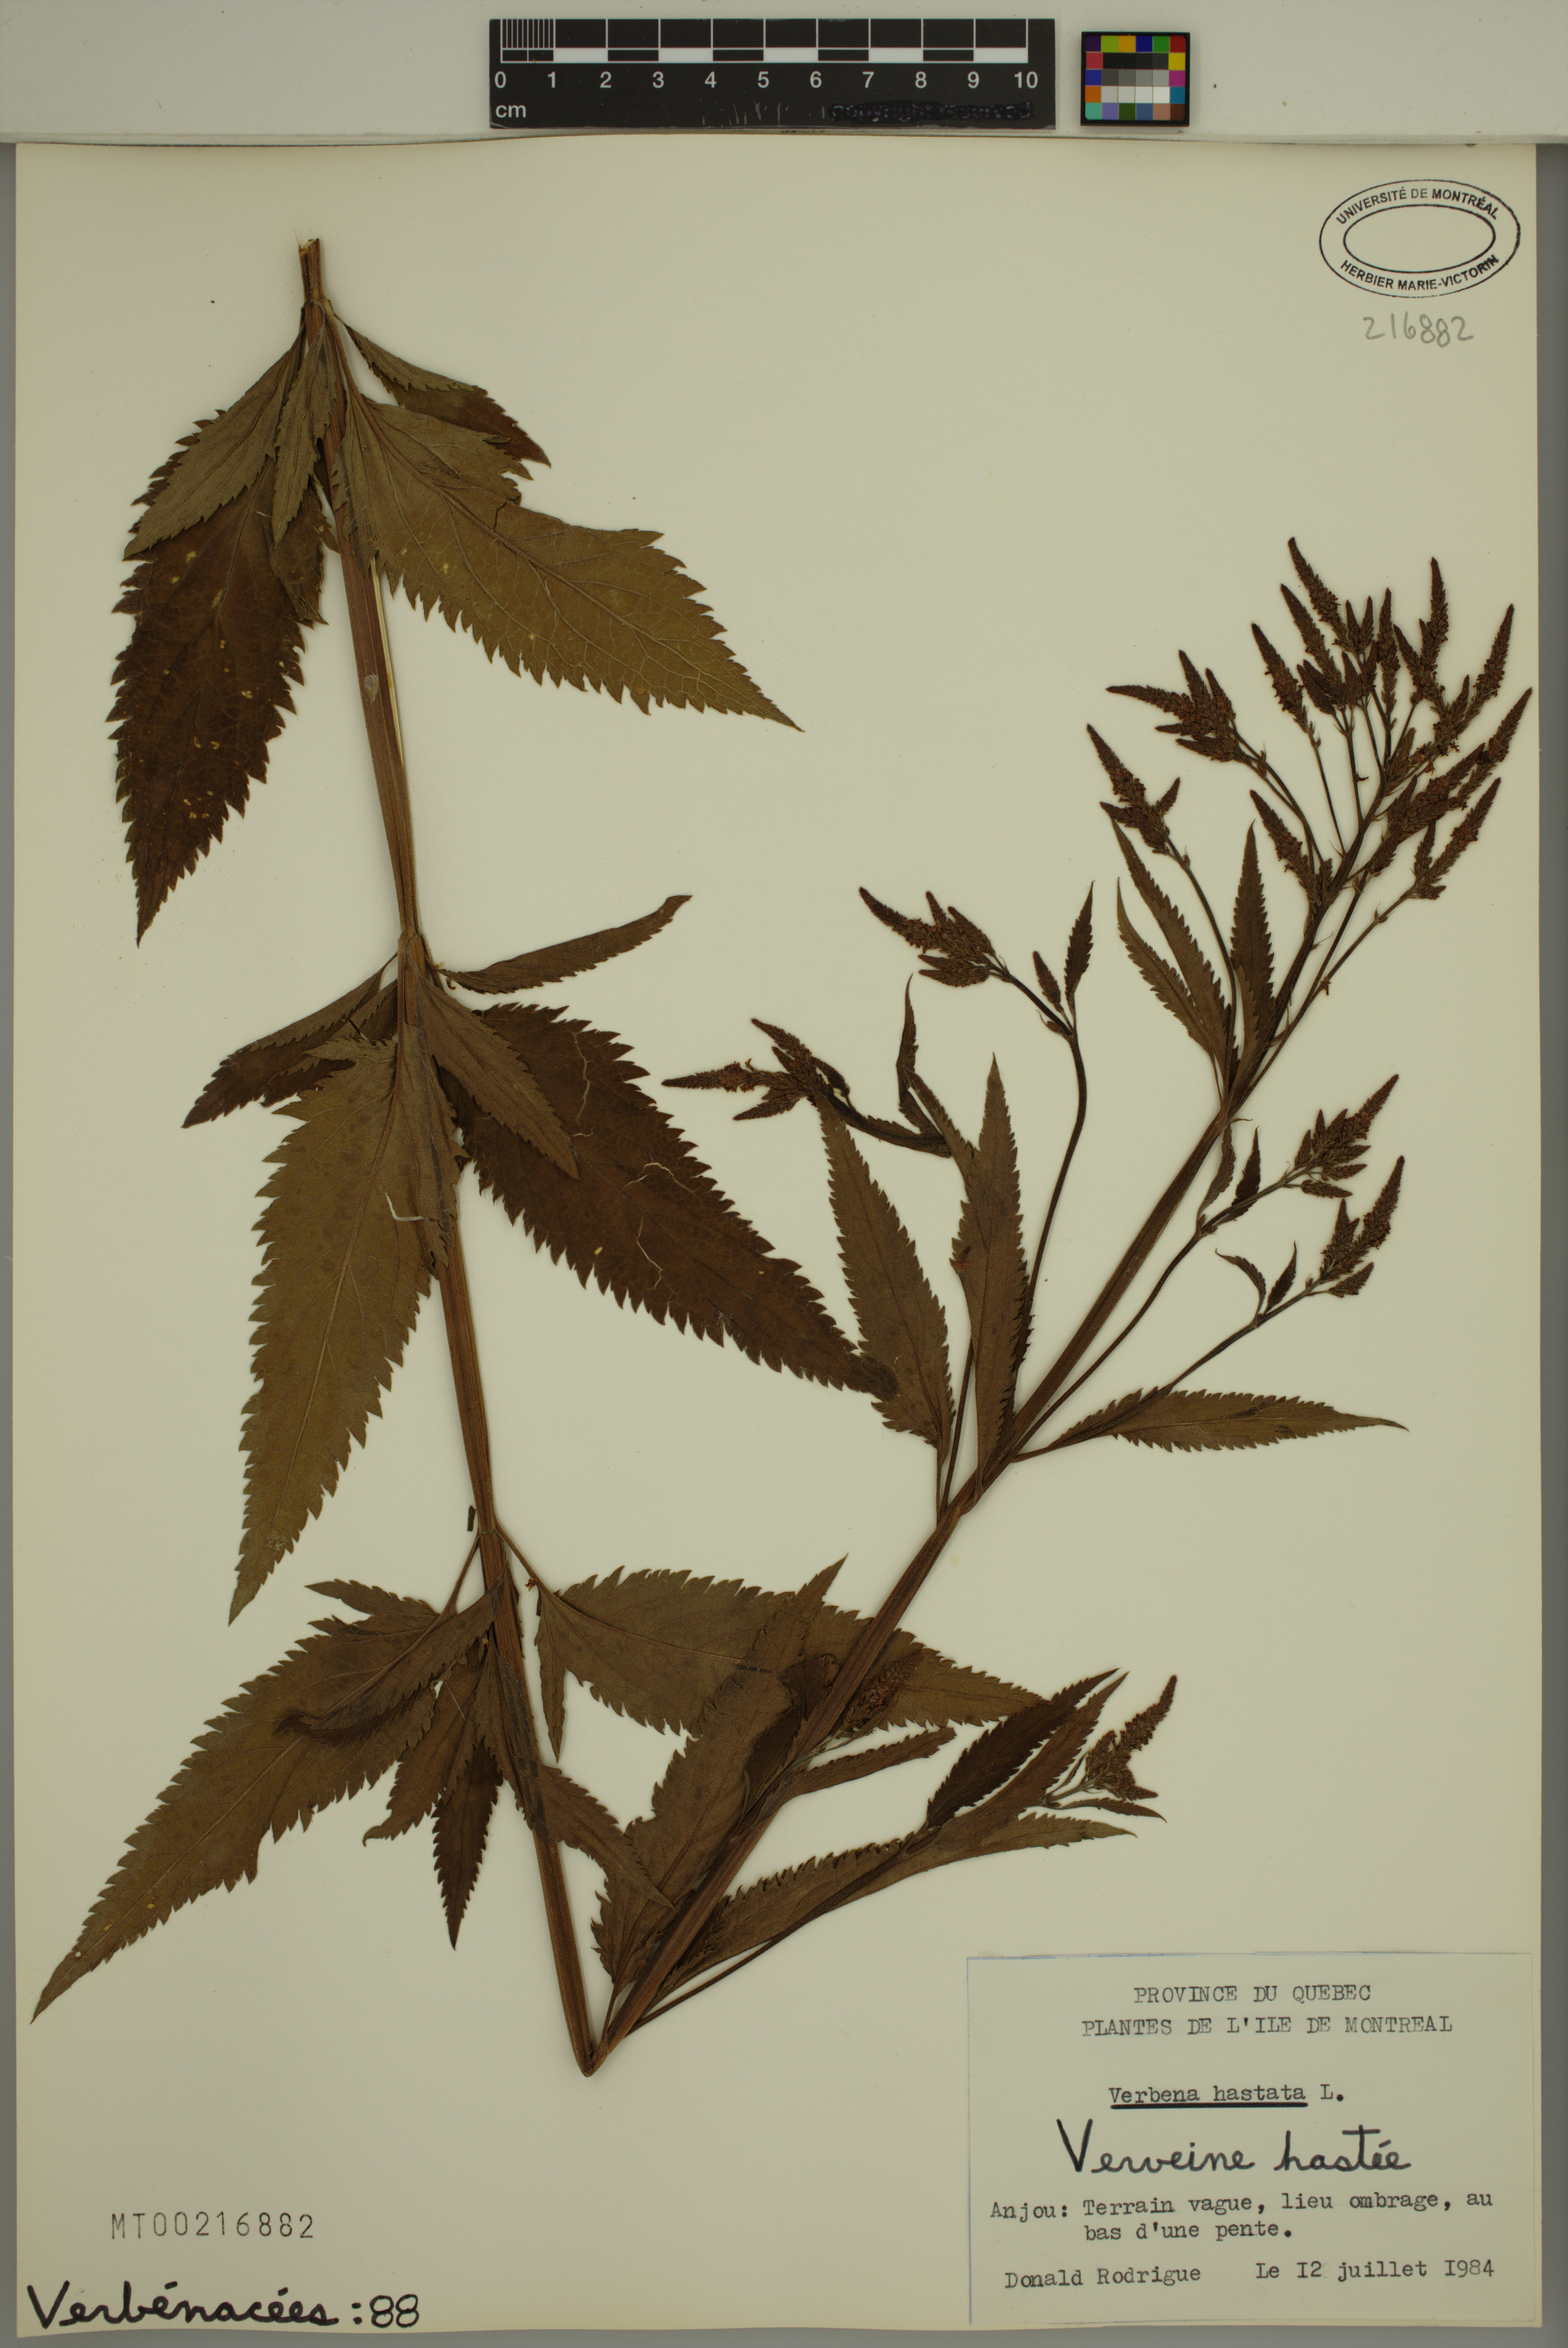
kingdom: Plantae
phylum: Tracheophyta
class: Magnoliopsida
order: Lamiales
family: Verbenaceae
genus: Verbena
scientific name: Verbena hastata
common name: American blue vervain
